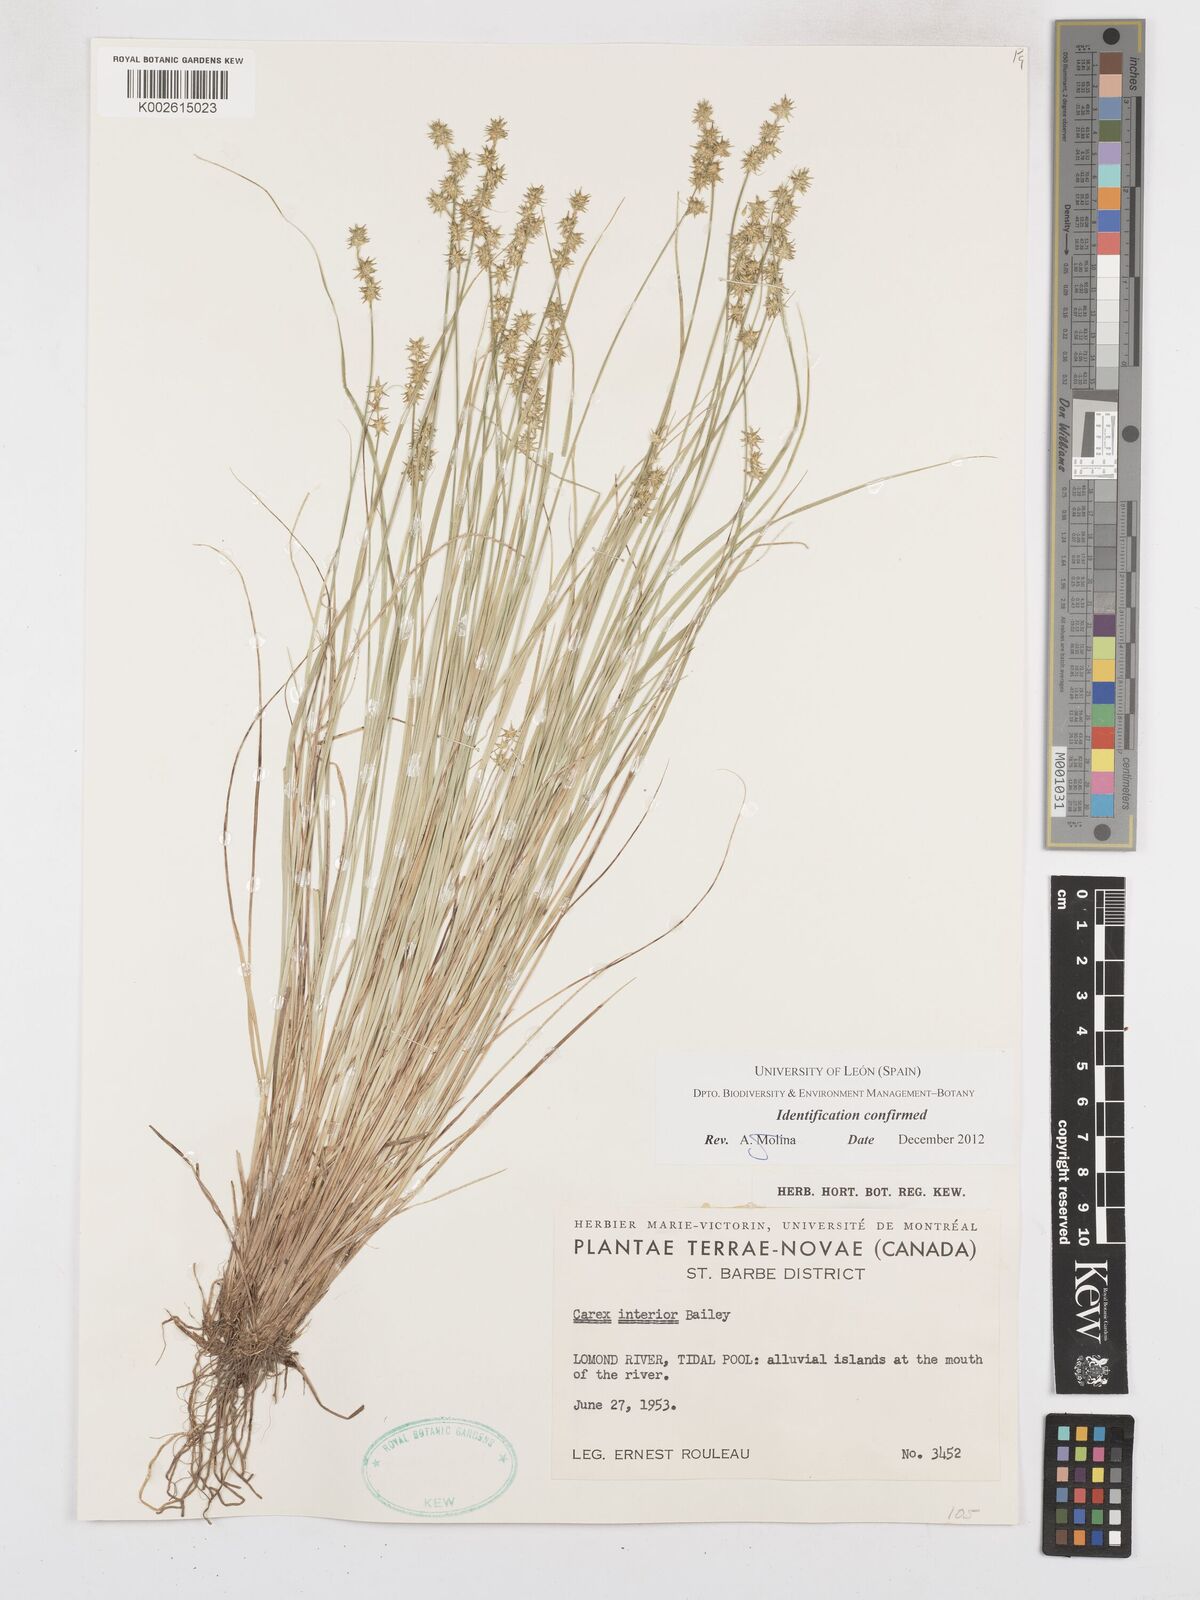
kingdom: Plantae
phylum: Tracheophyta
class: Liliopsida
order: Poales
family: Cyperaceae
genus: Carex
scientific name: Carex interior
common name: Inland sedge
